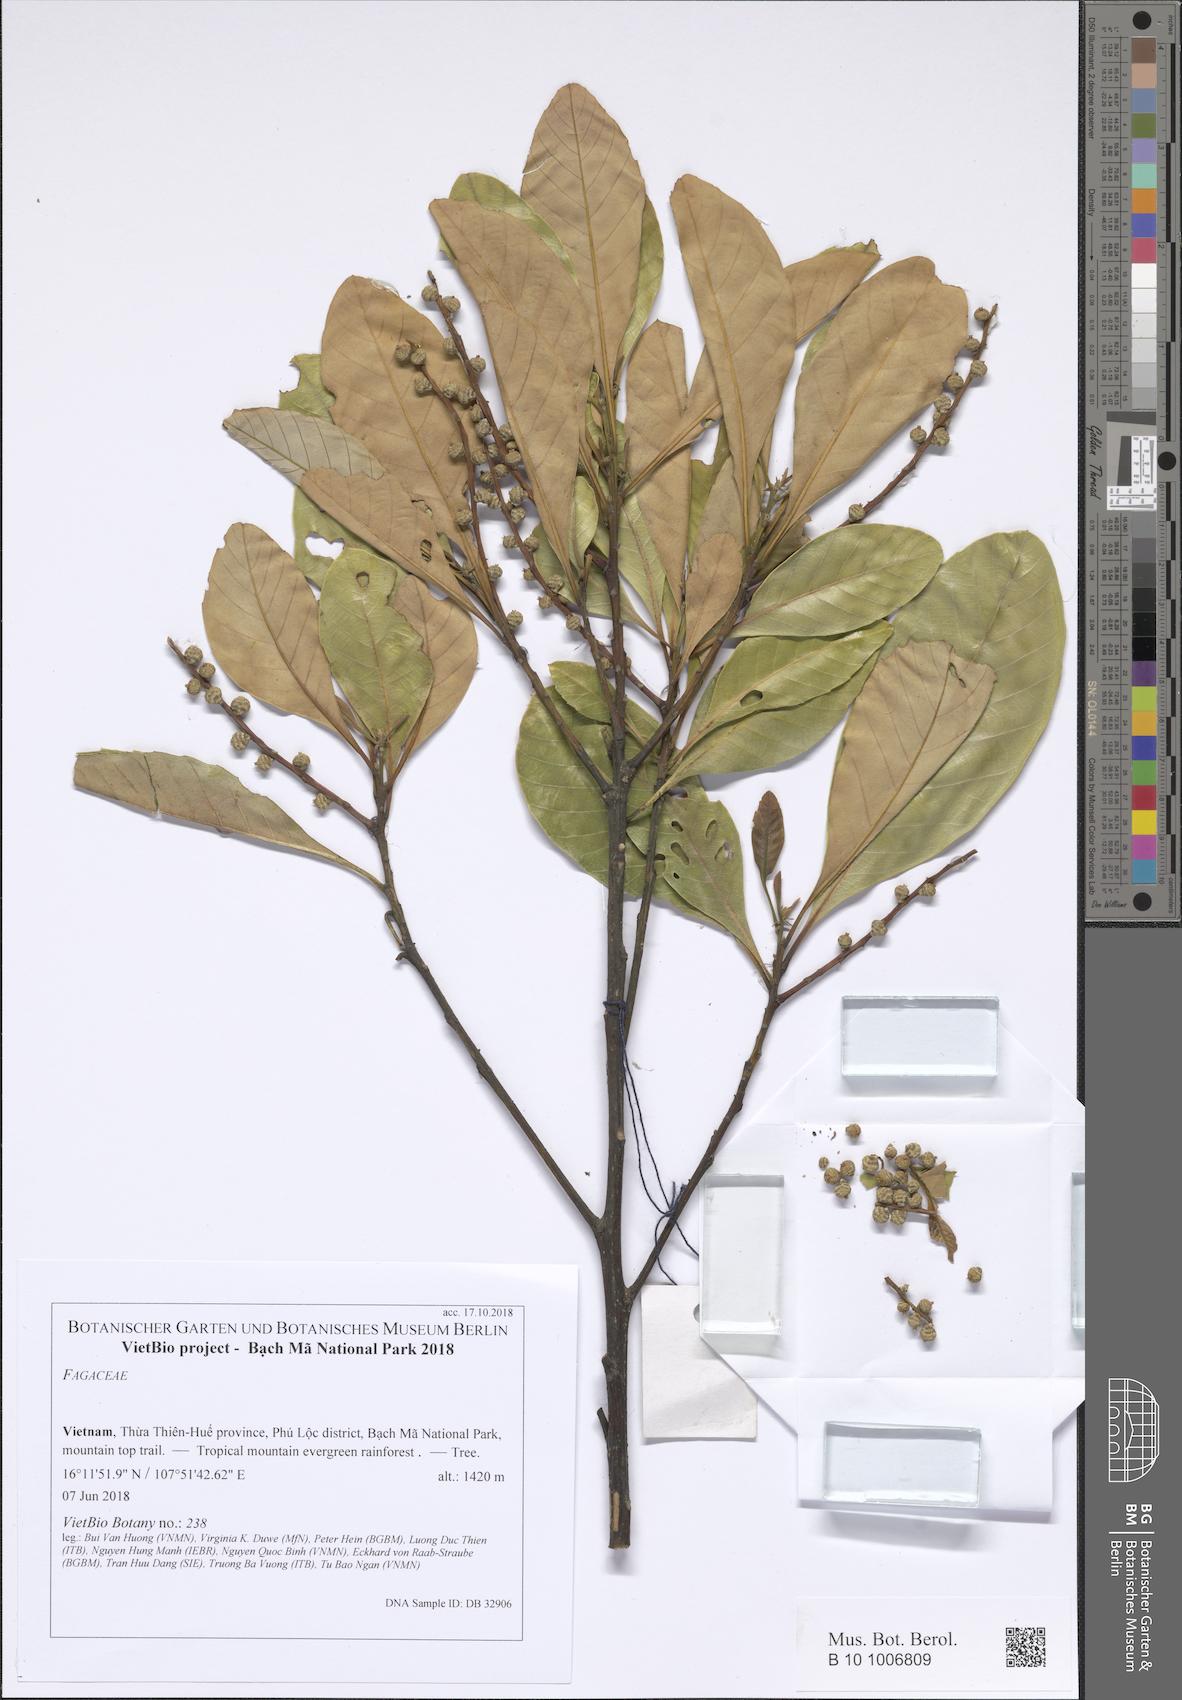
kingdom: Plantae
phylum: Tracheophyta
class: Magnoliopsida
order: Fagales
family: Fagaceae
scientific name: Fagaceae
